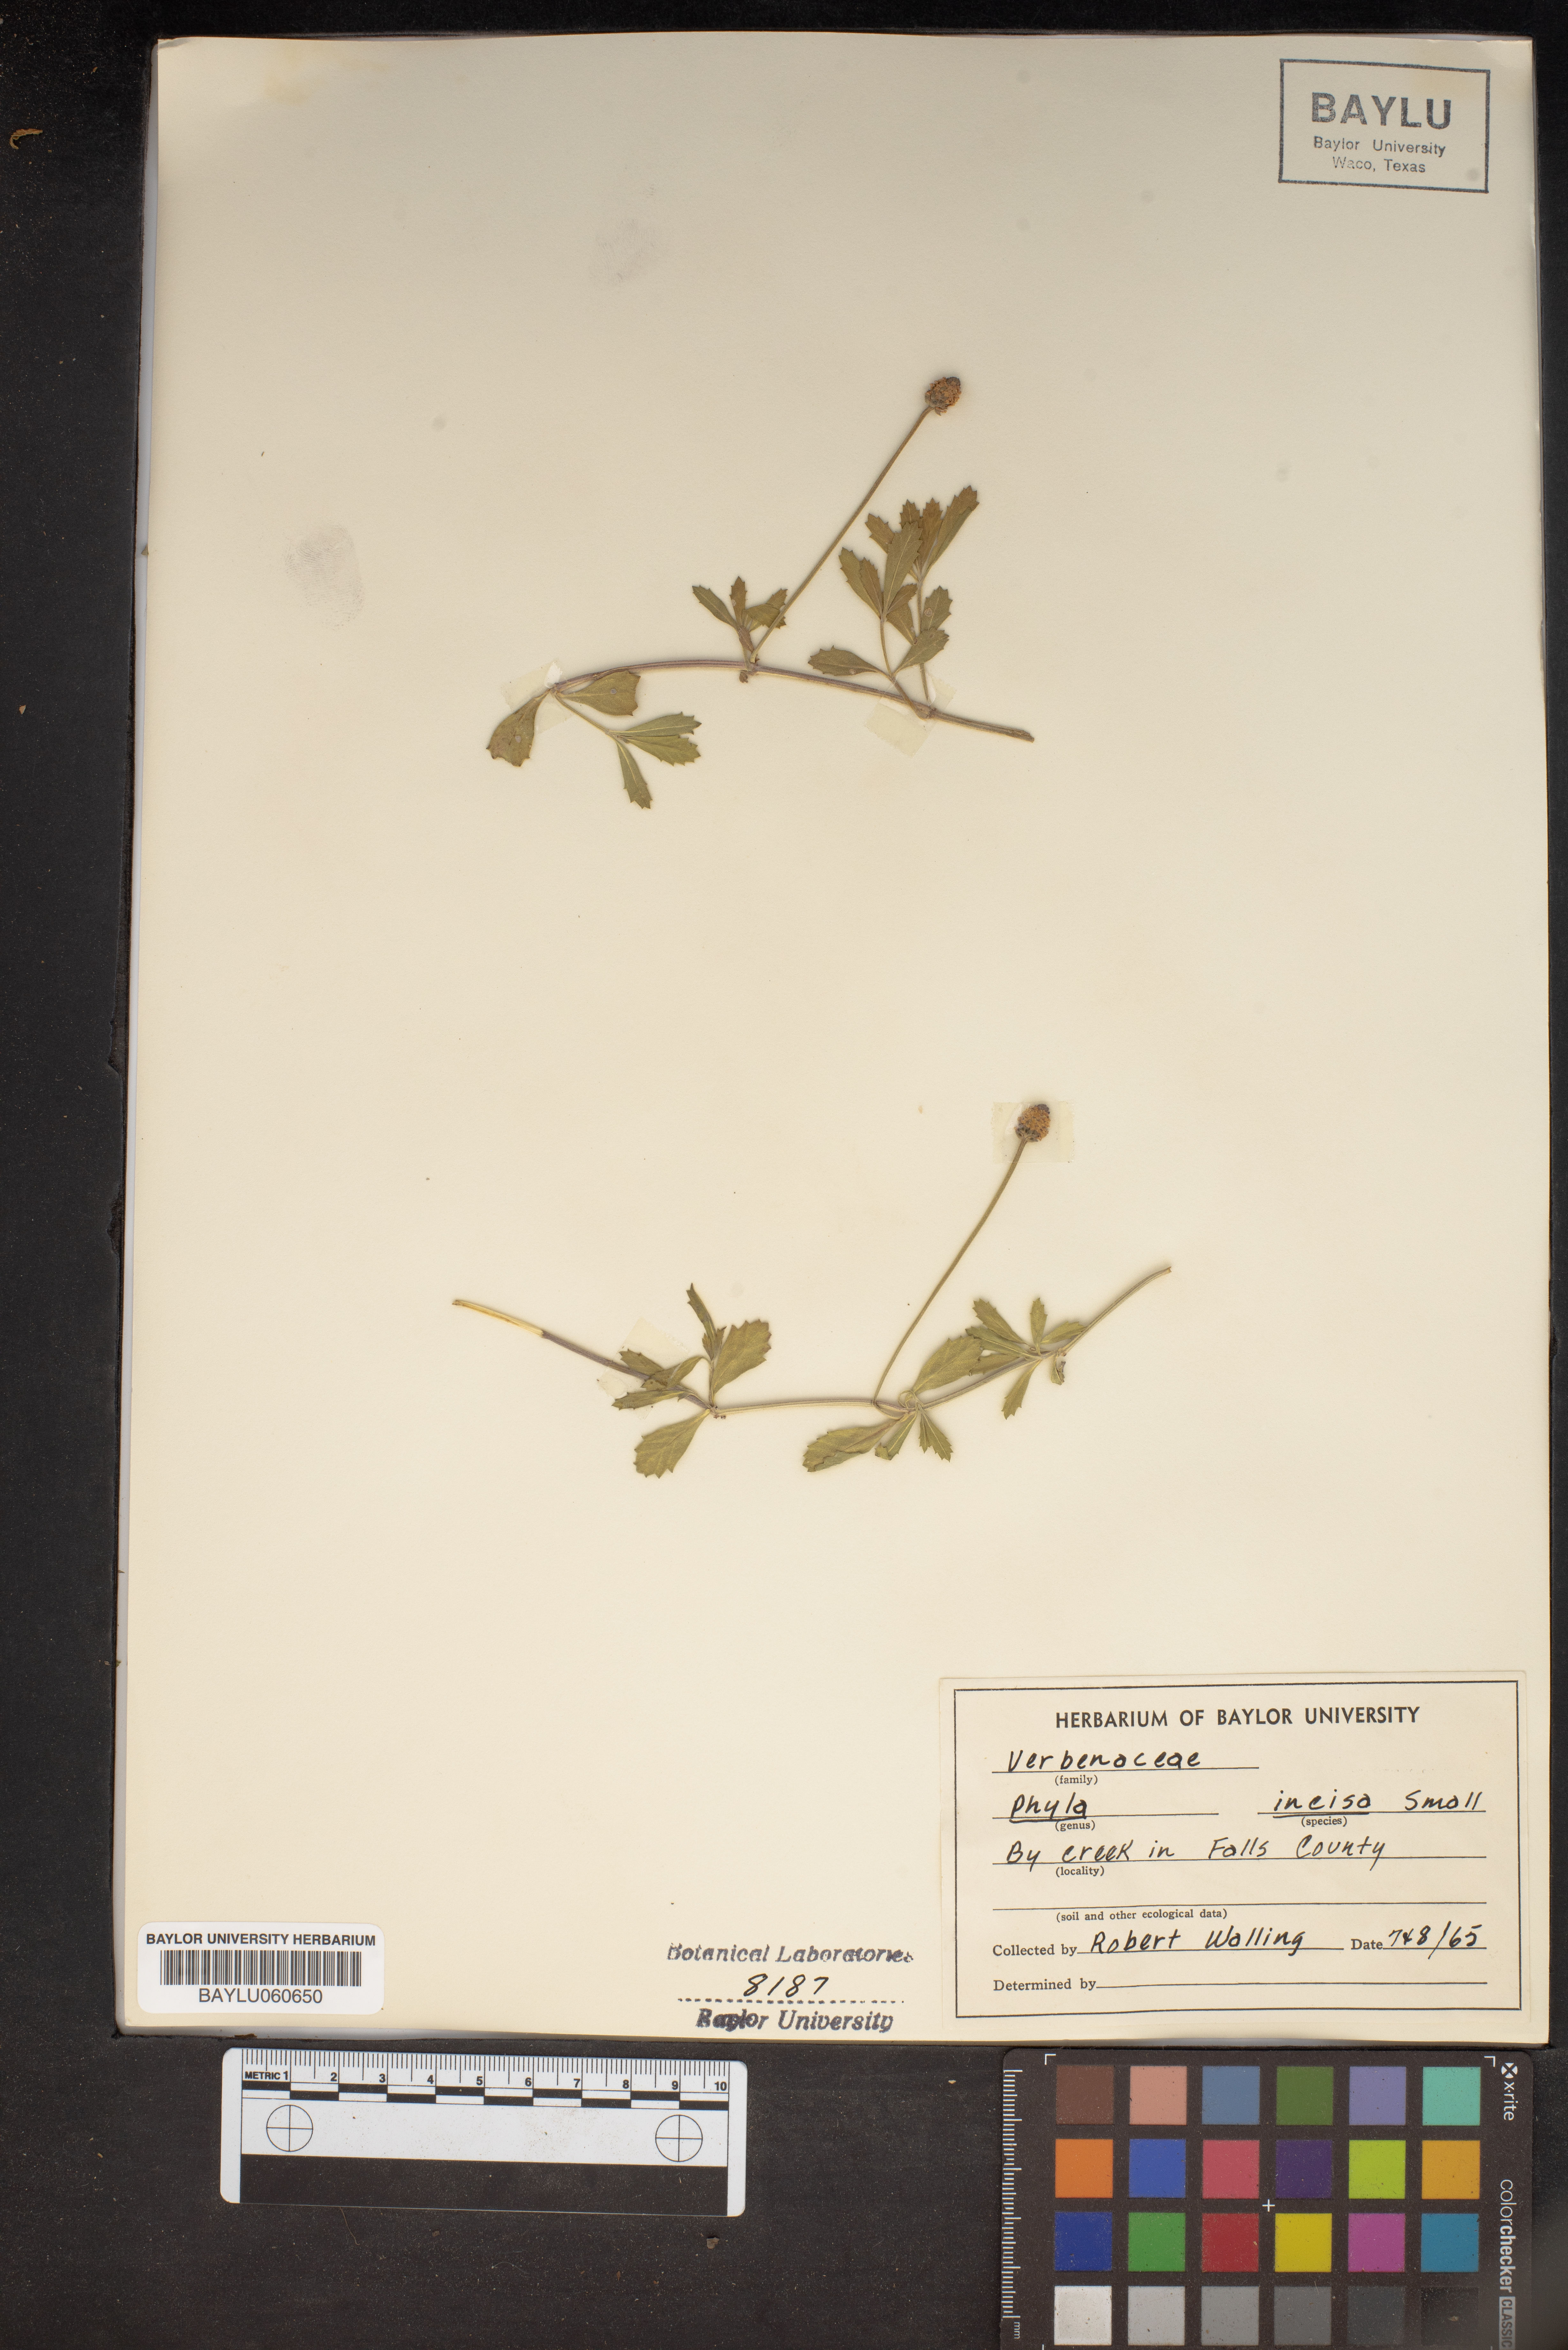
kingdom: Plantae
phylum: Tracheophyta
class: Magnoliopsida
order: Lamiales
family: Verbenaceae
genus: Phyla
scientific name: Phyla nodiflora
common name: Frogfruit
